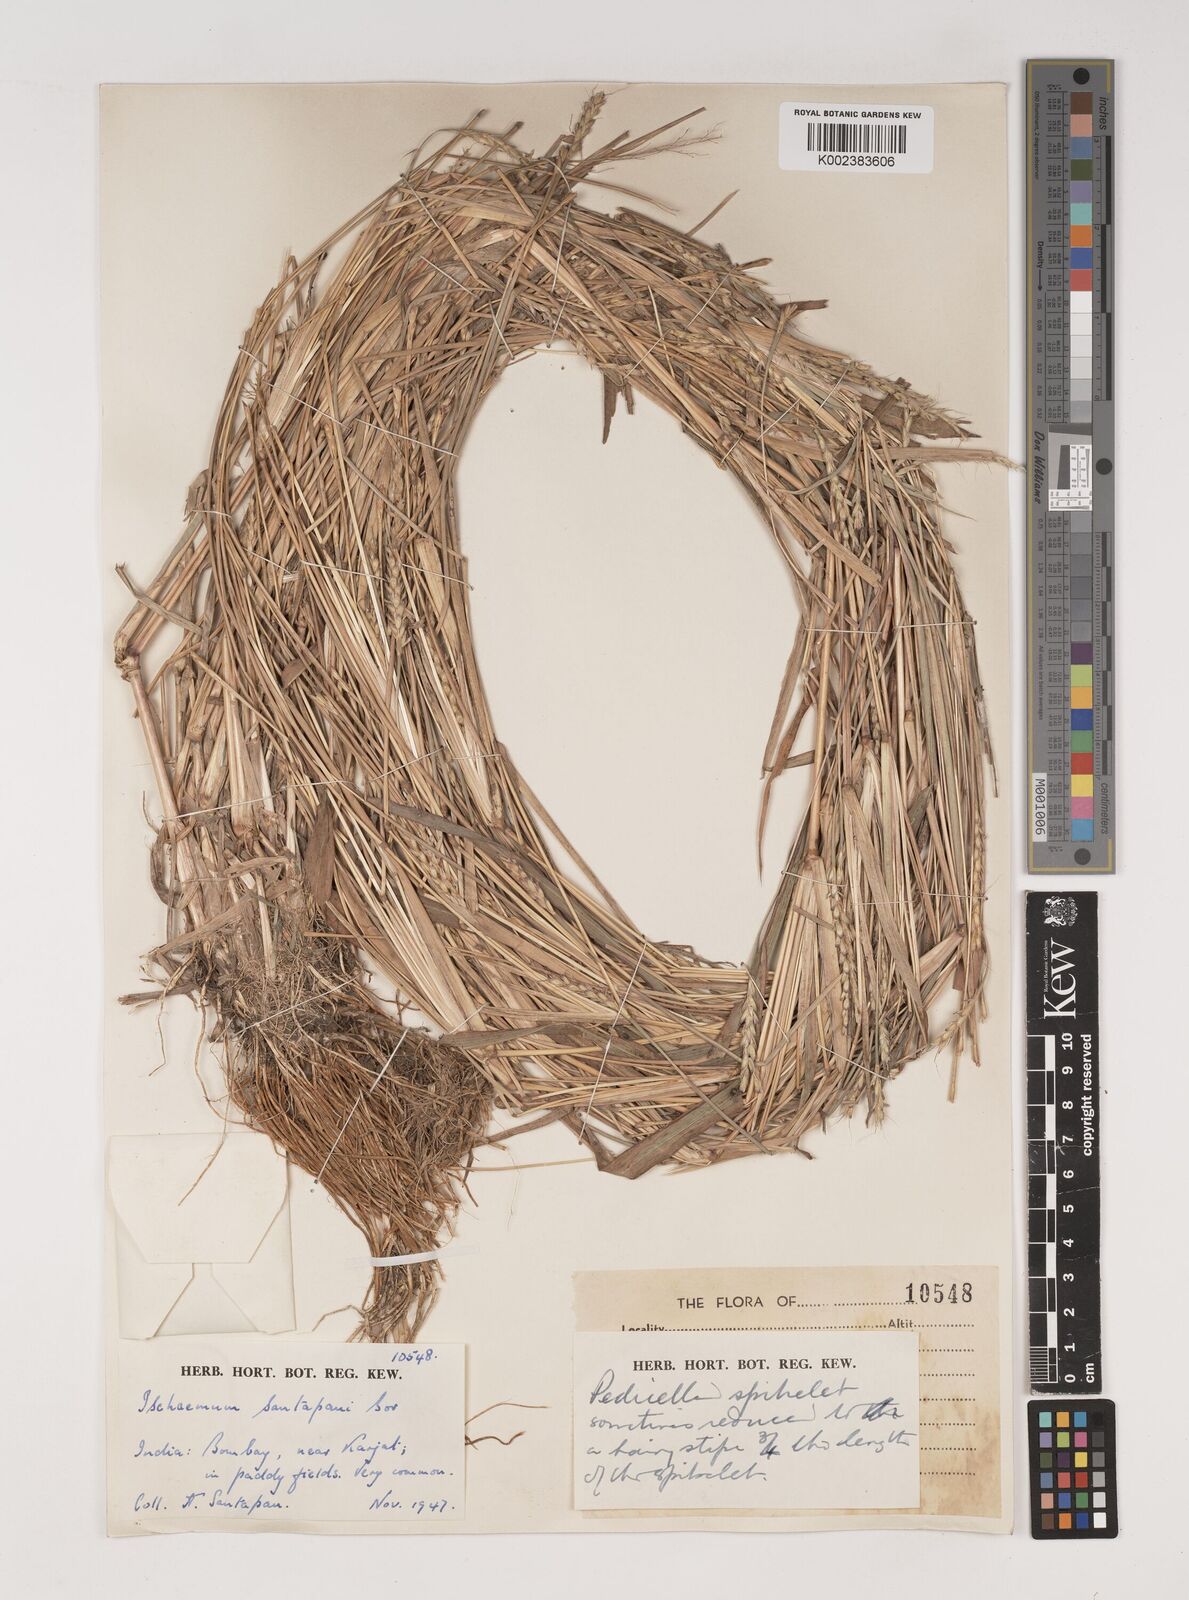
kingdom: Plantae
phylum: Tracheophyta
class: Liliopsida
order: Poales
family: Poaceae
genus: Ischaemum
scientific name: Ischaemum santapaui
